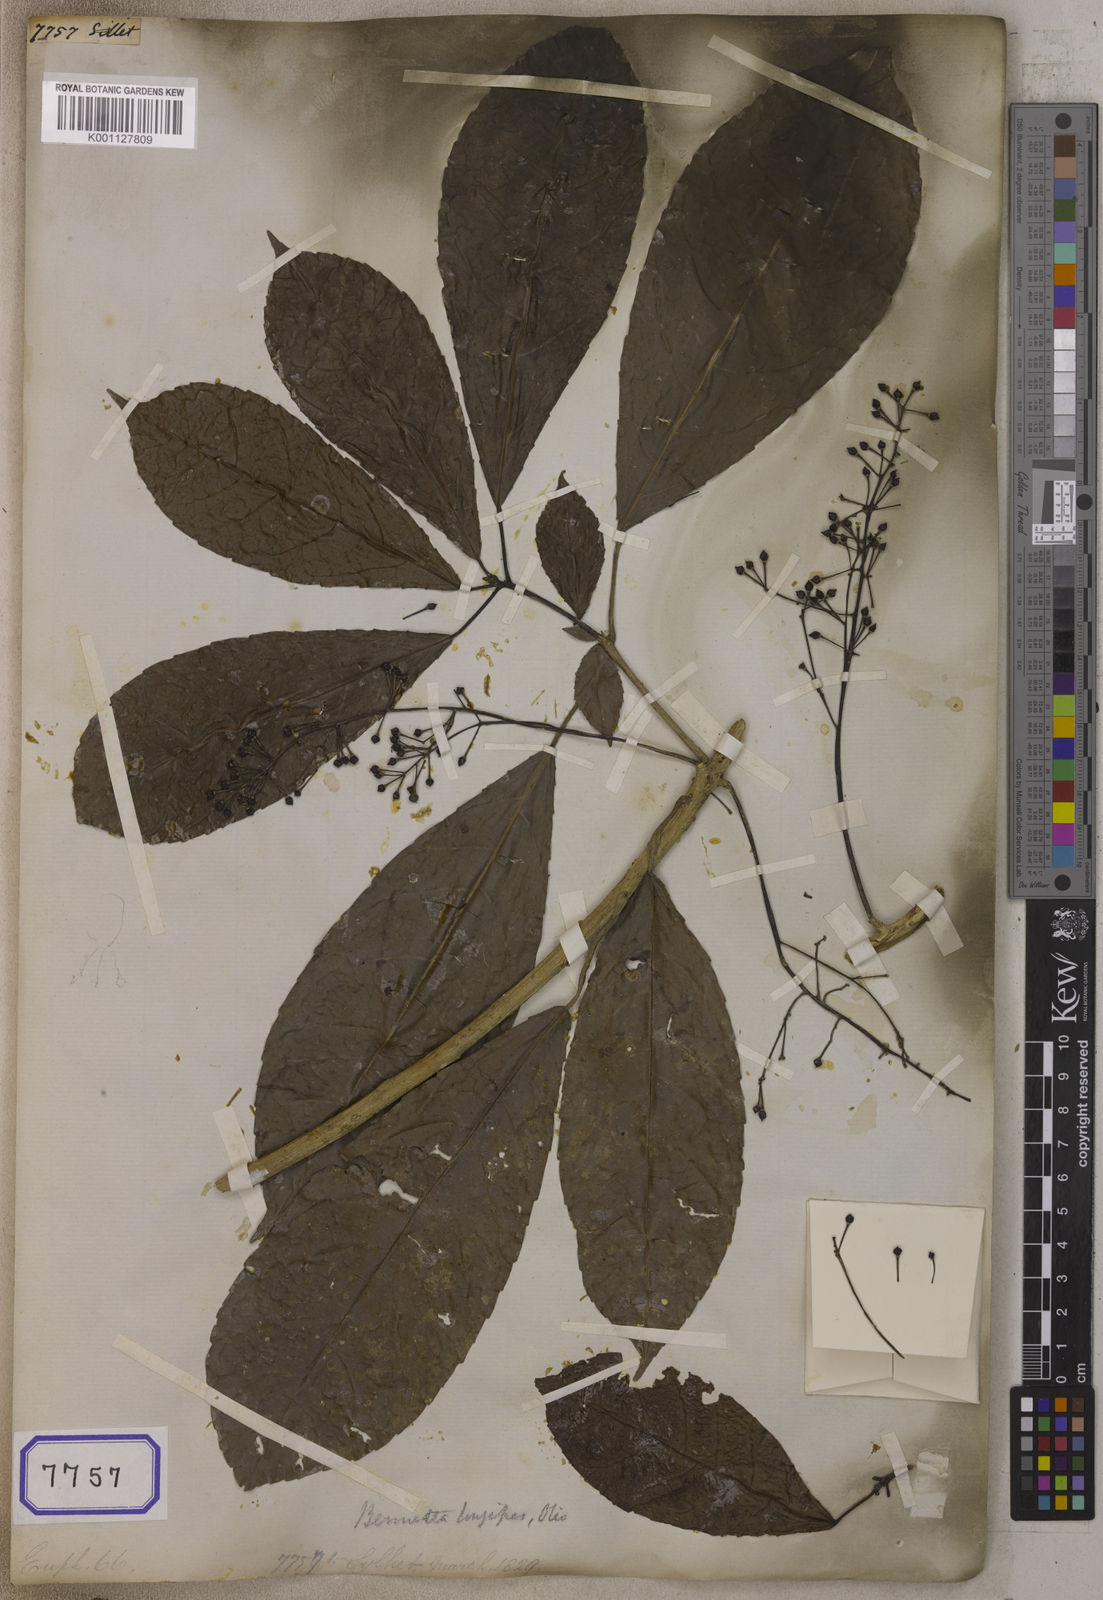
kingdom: Plantae
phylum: Tracheophyta
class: Magnoliopsida
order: Malpighiales
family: Euphorbiaceae
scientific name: Euphorbiaceae
